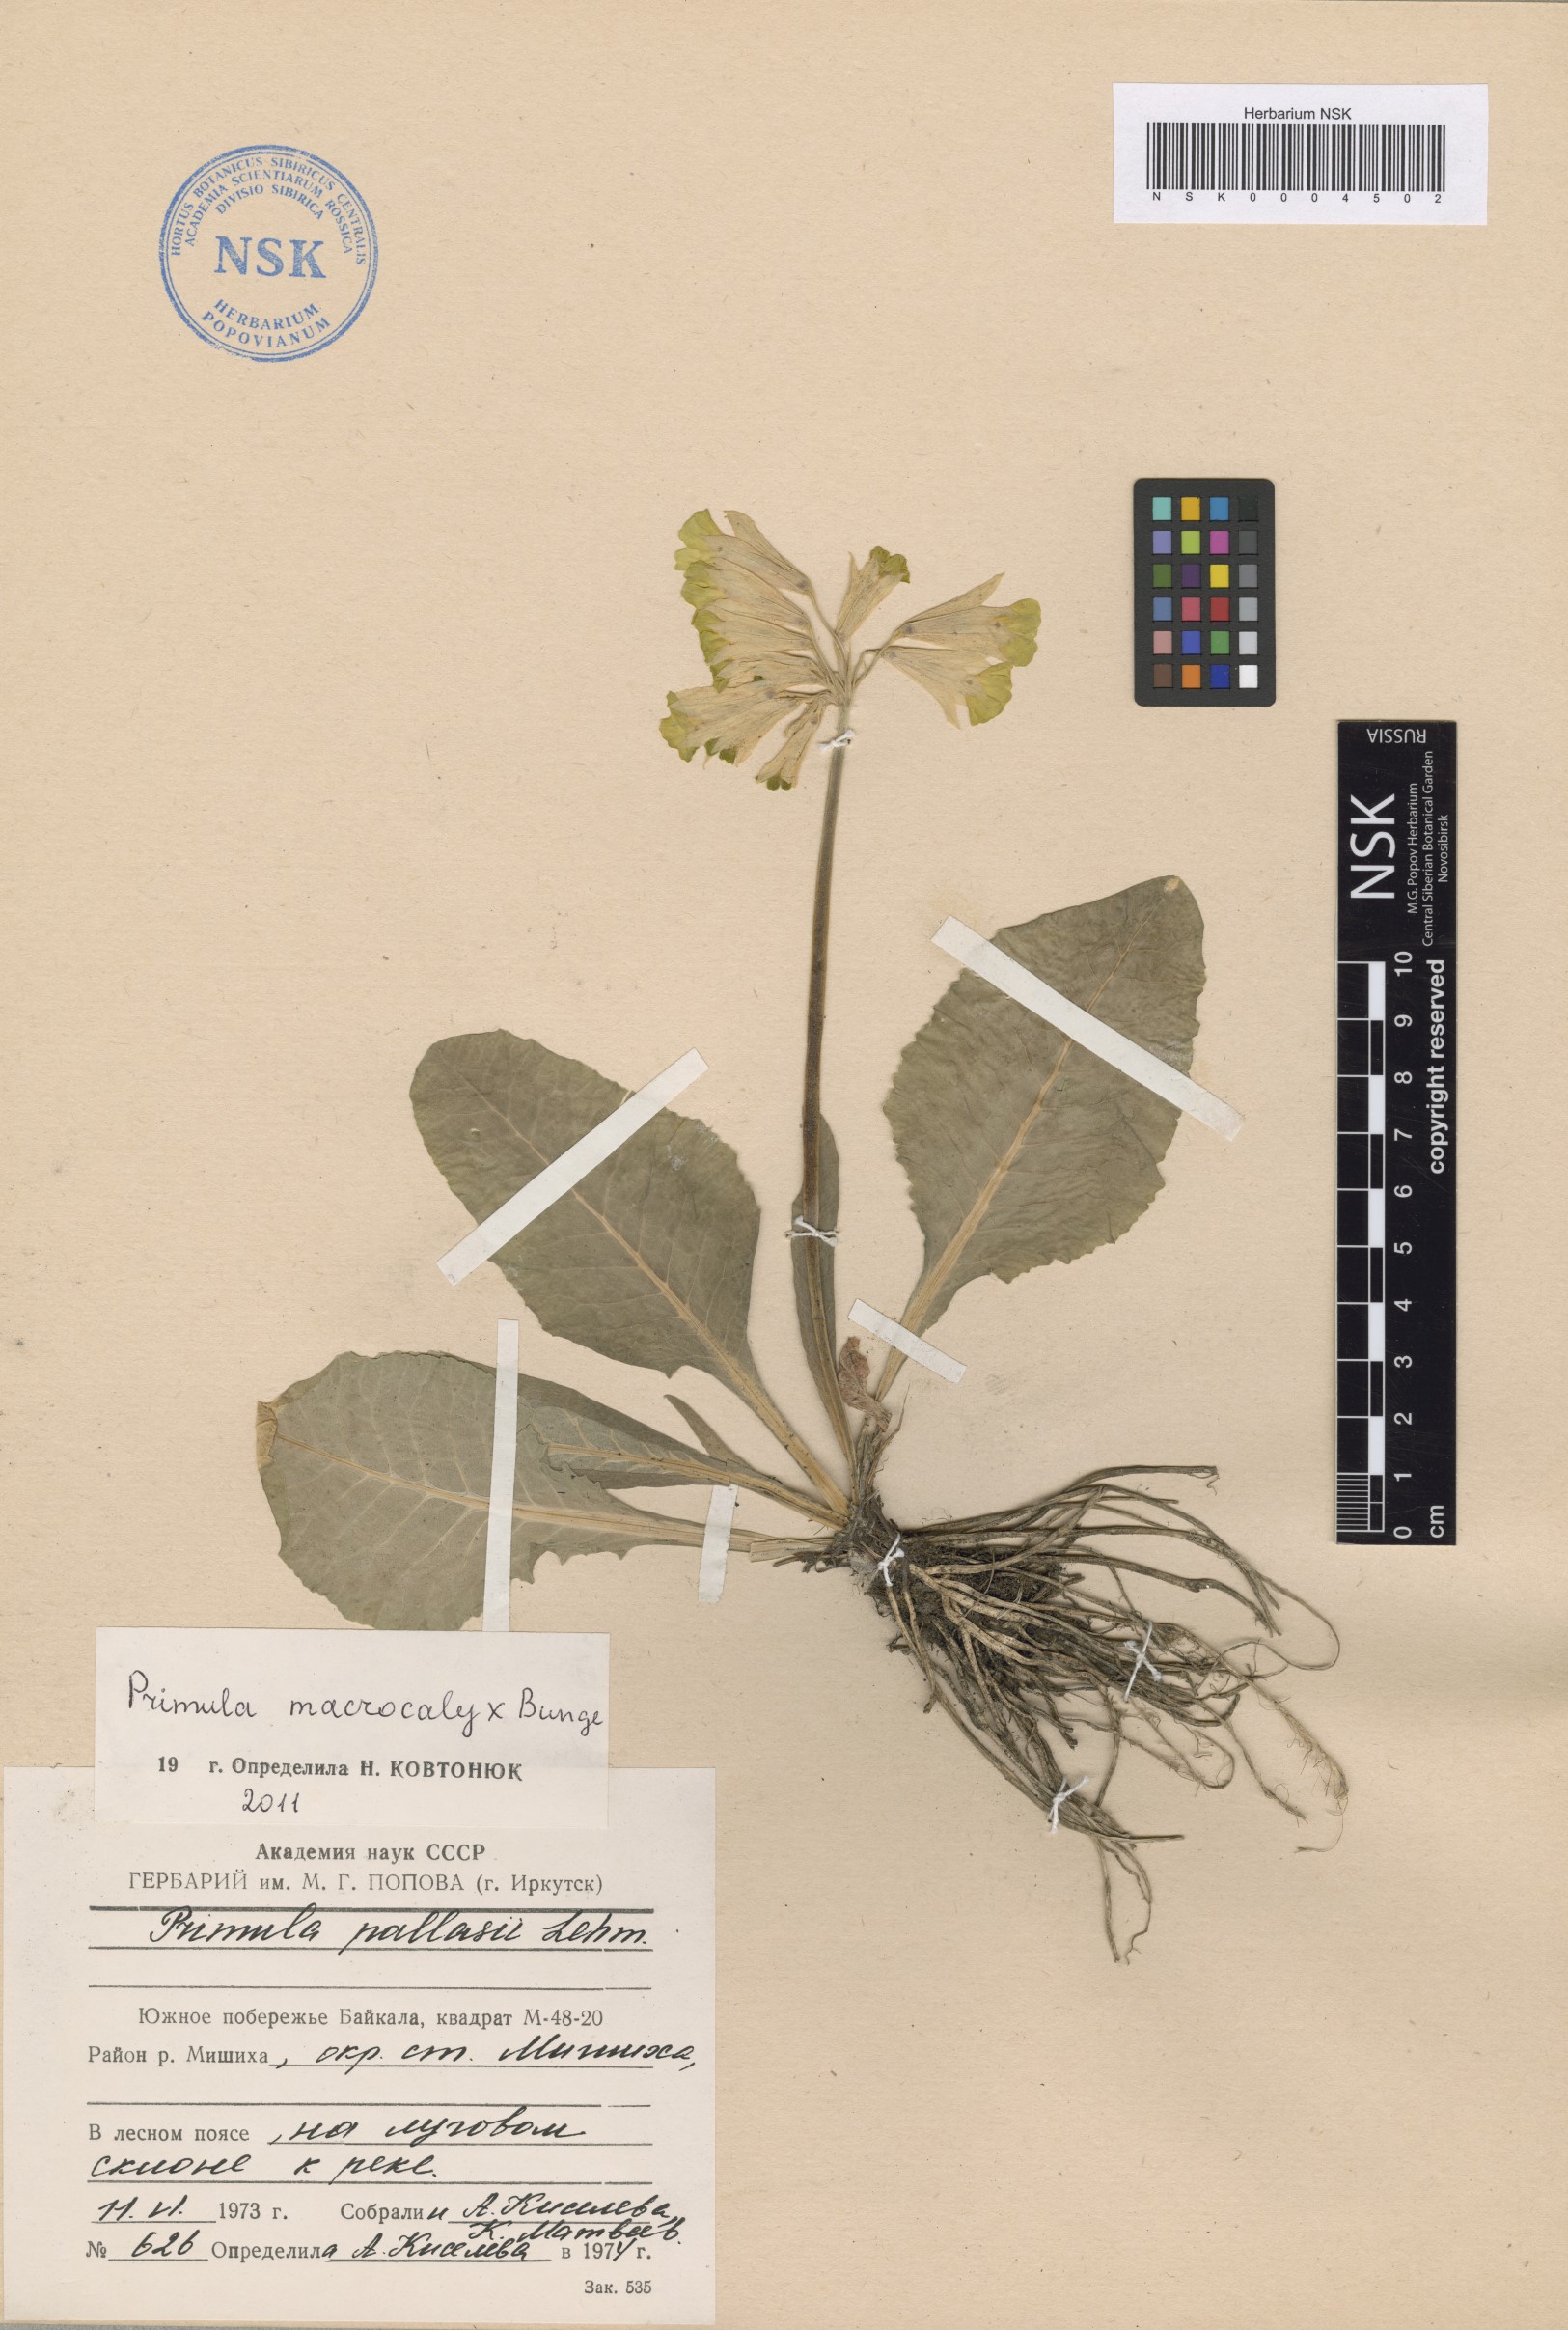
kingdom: Plantae
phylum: Tracheophyta
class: Magnoliopsida
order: Ericales
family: Primulaceae
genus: Primula
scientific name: Primula veris
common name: Cowslip
